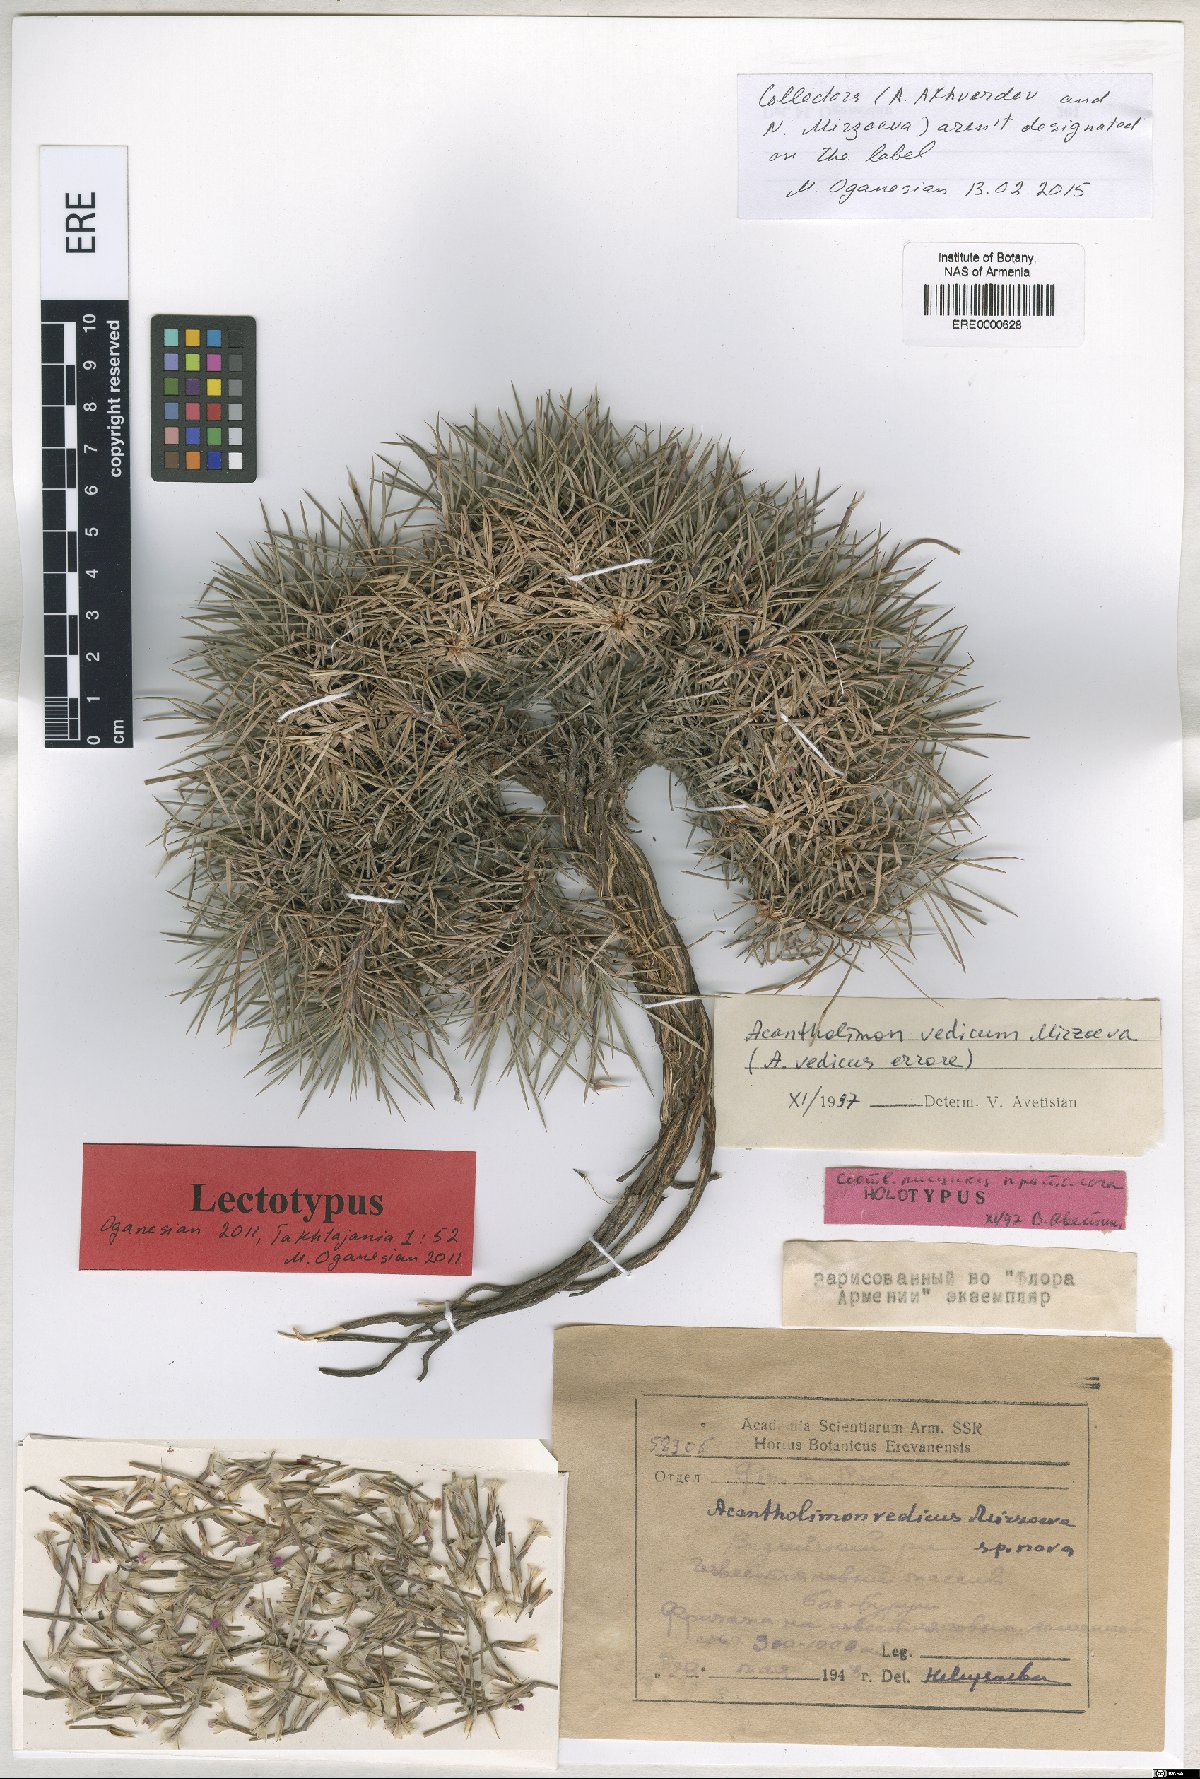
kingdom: Plantae
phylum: Tracheophyta
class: Magnoliopsida
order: Caryophyllales
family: Plumbaginaceae
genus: Acantholimon
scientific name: Acantholimon vedicum
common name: Vedian prickly thrift
